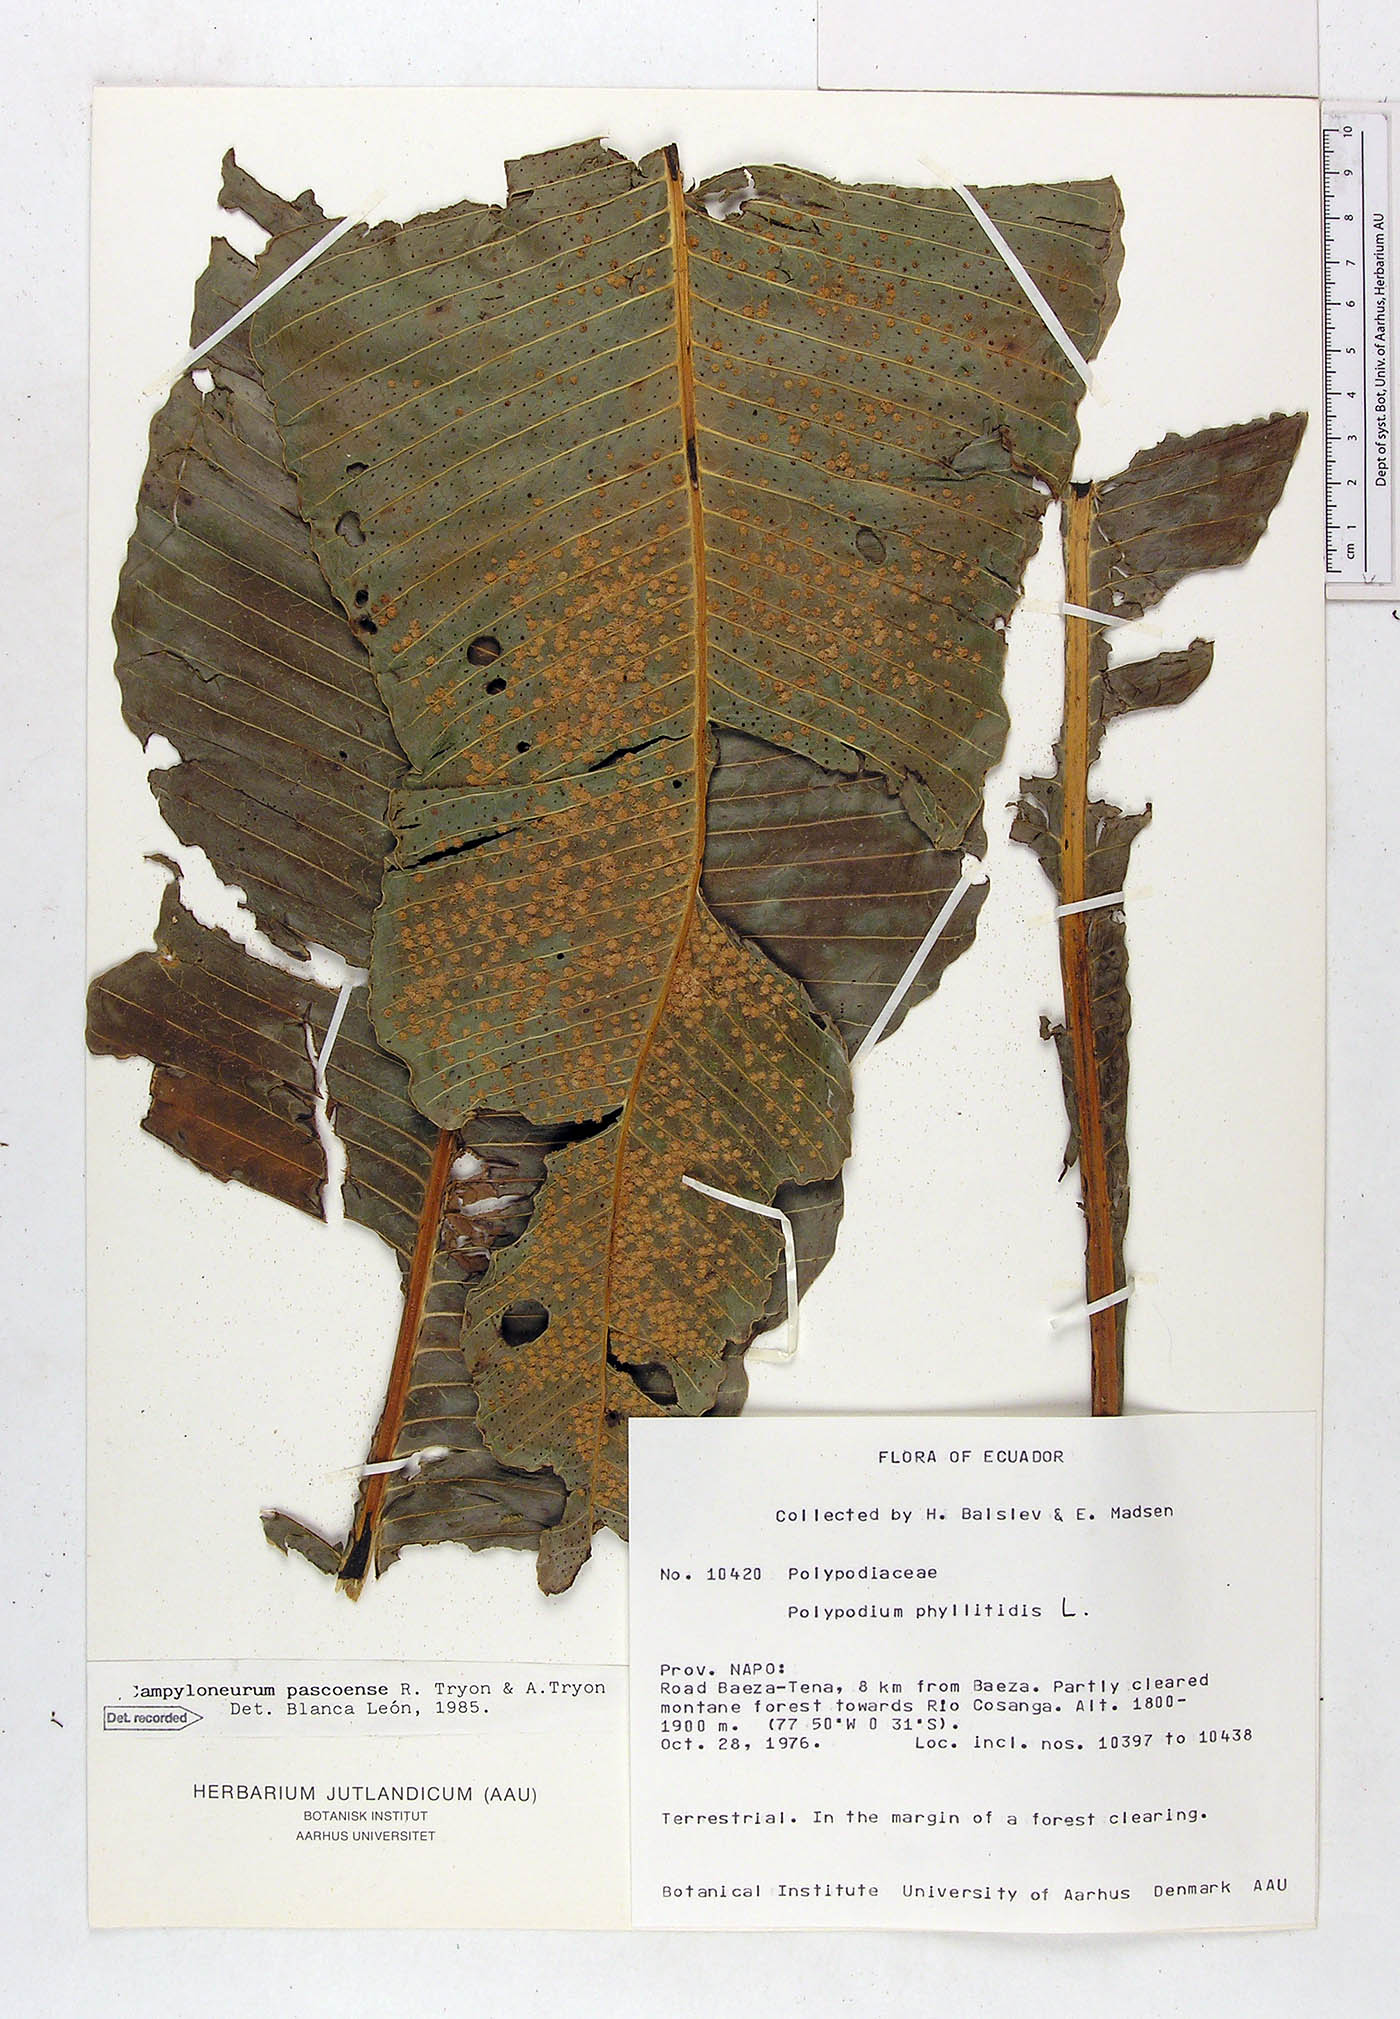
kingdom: Plantae
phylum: Tracheophyta
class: Polypodiopsida
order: Polypodiales
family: Polypodiaceae
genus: Campyloneurum
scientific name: Campyloneurum pascoense
